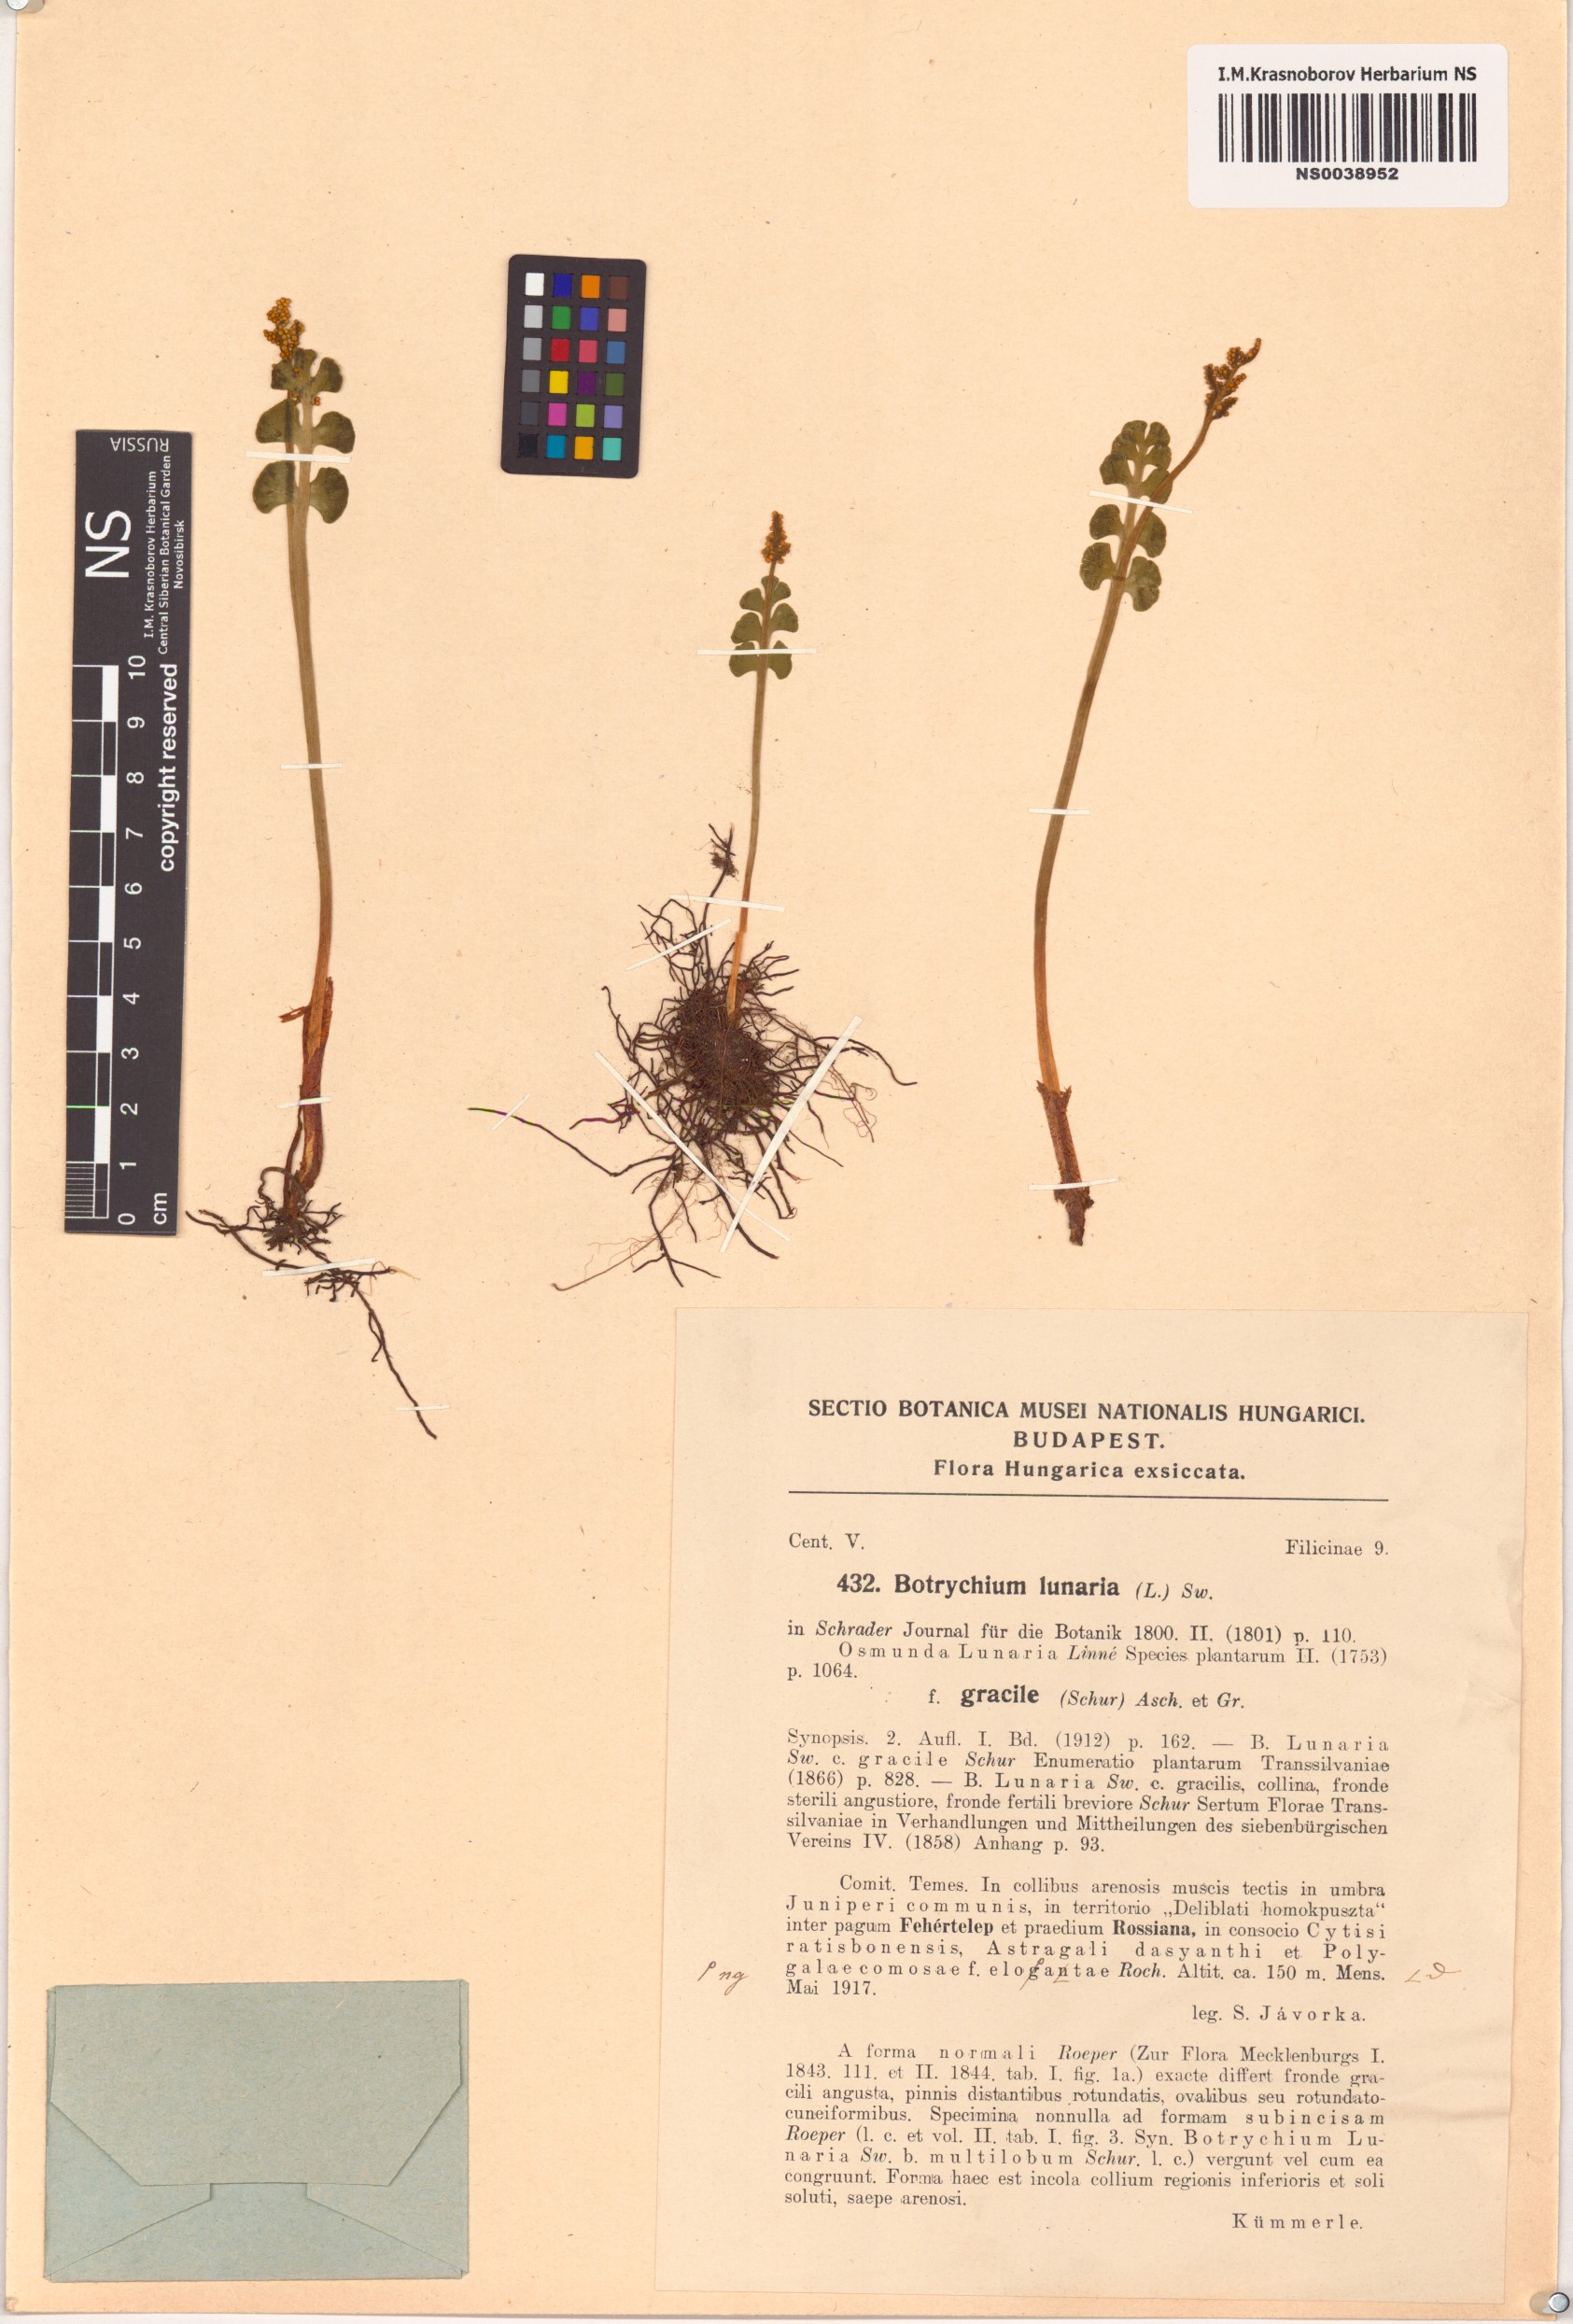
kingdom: Plantae
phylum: Tracheophyta
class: Polypodiopsida
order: Ophioglossales
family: Ophioglossaceae
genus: Botrychium
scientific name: Botrychium lunaria
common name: Moonwort
